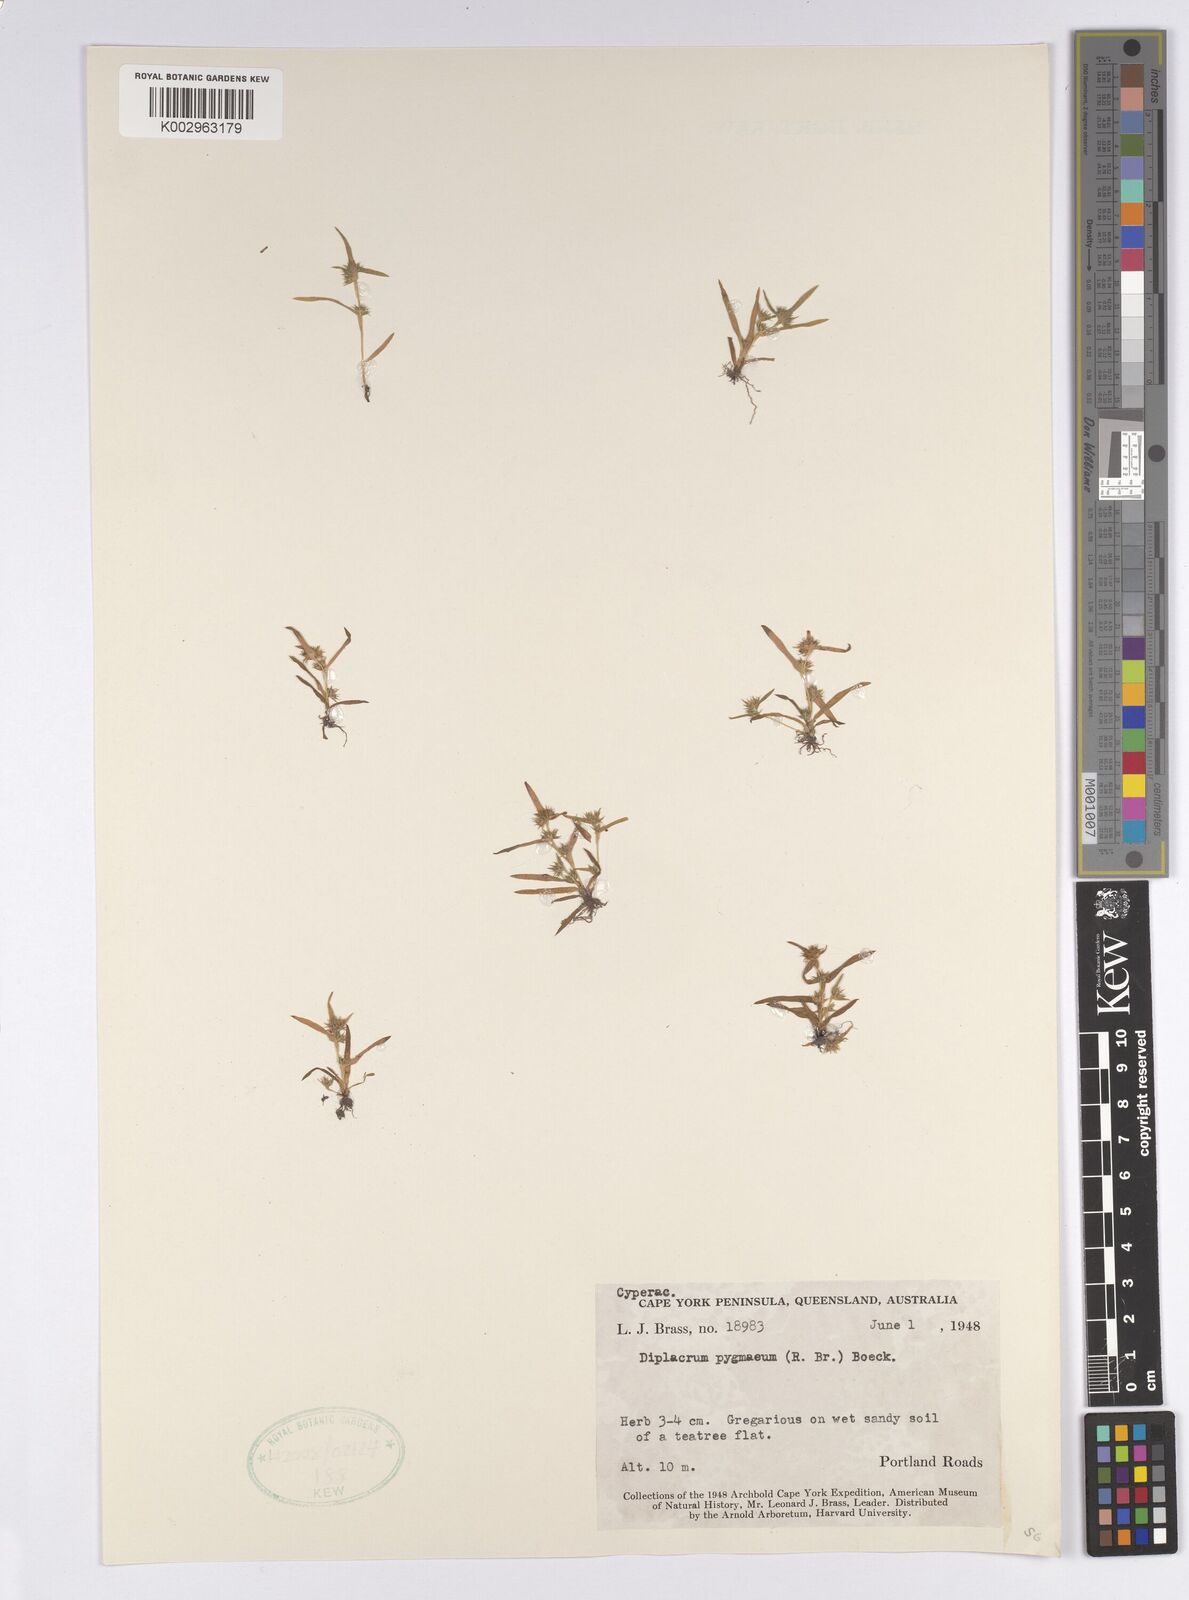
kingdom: Plantae
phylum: Tracheophyta
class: Liliopsida
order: Poales
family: Cyperaceae
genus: Diplacrum
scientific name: Diplacrum pygmaeum
